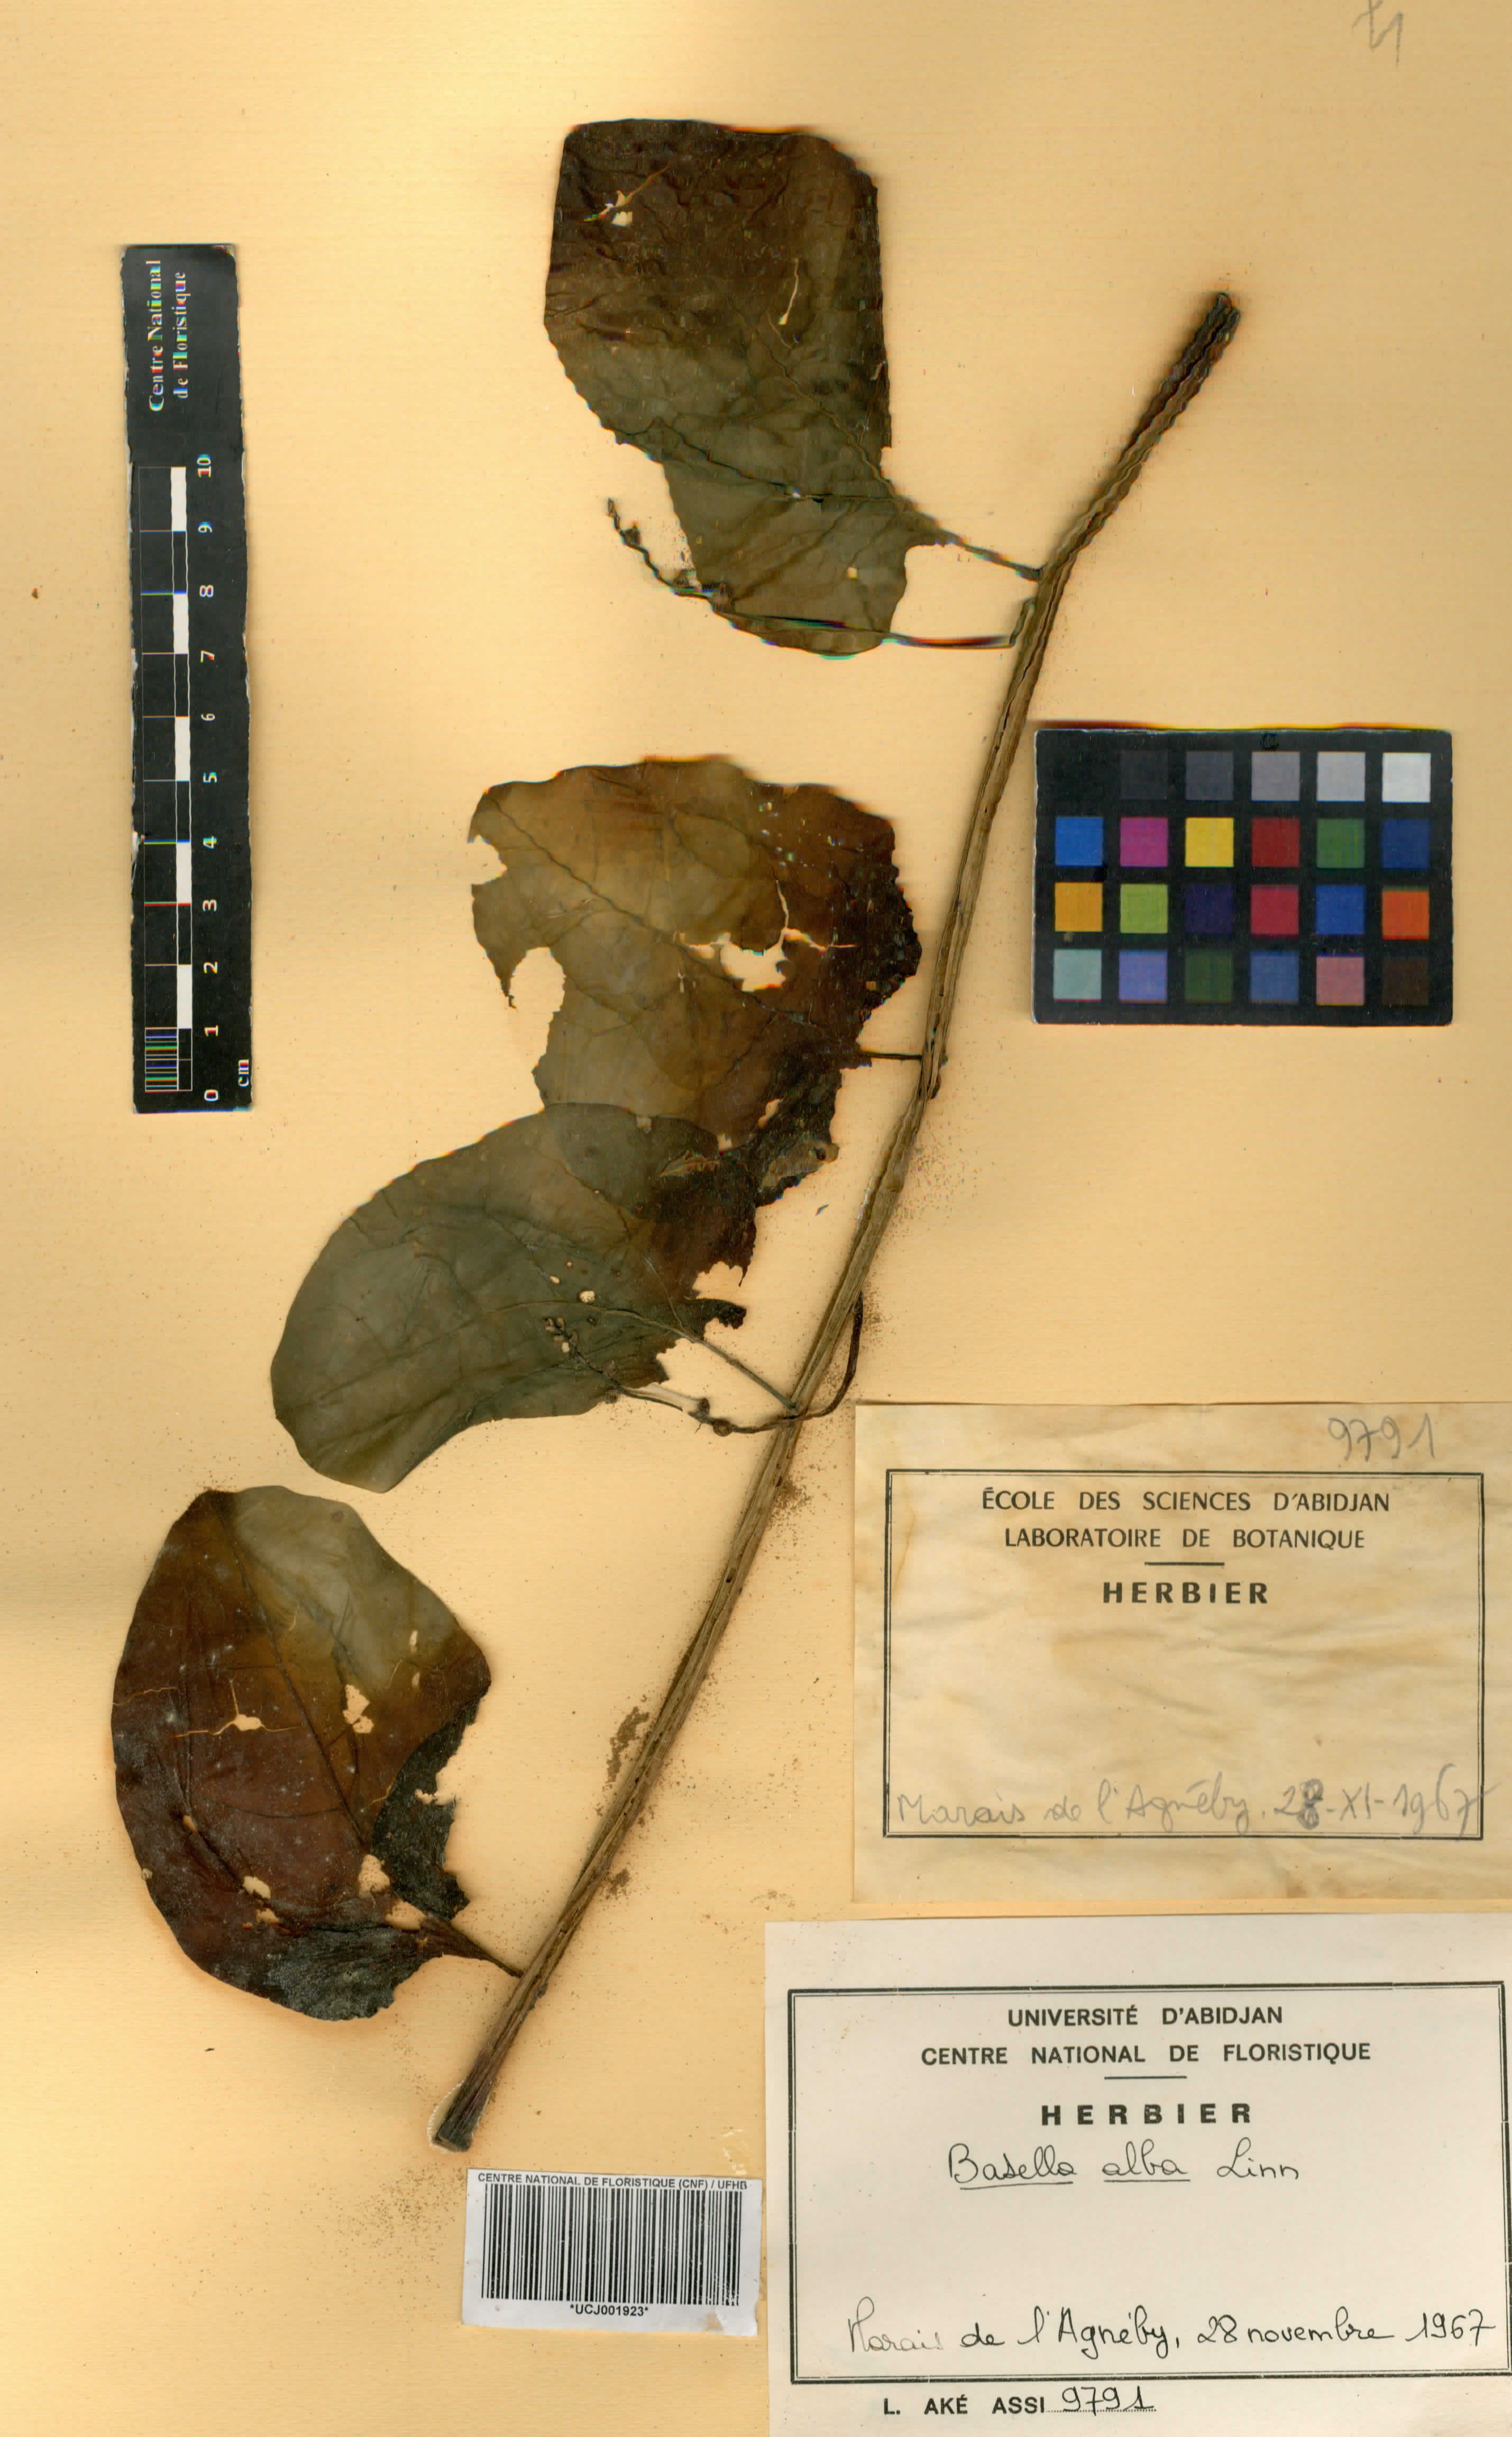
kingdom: Plantae
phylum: Tracheophyta
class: Magnoliopsida
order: Caryophyllales
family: Basellaceae
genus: Basella
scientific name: Basella alba
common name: Indian spinach
